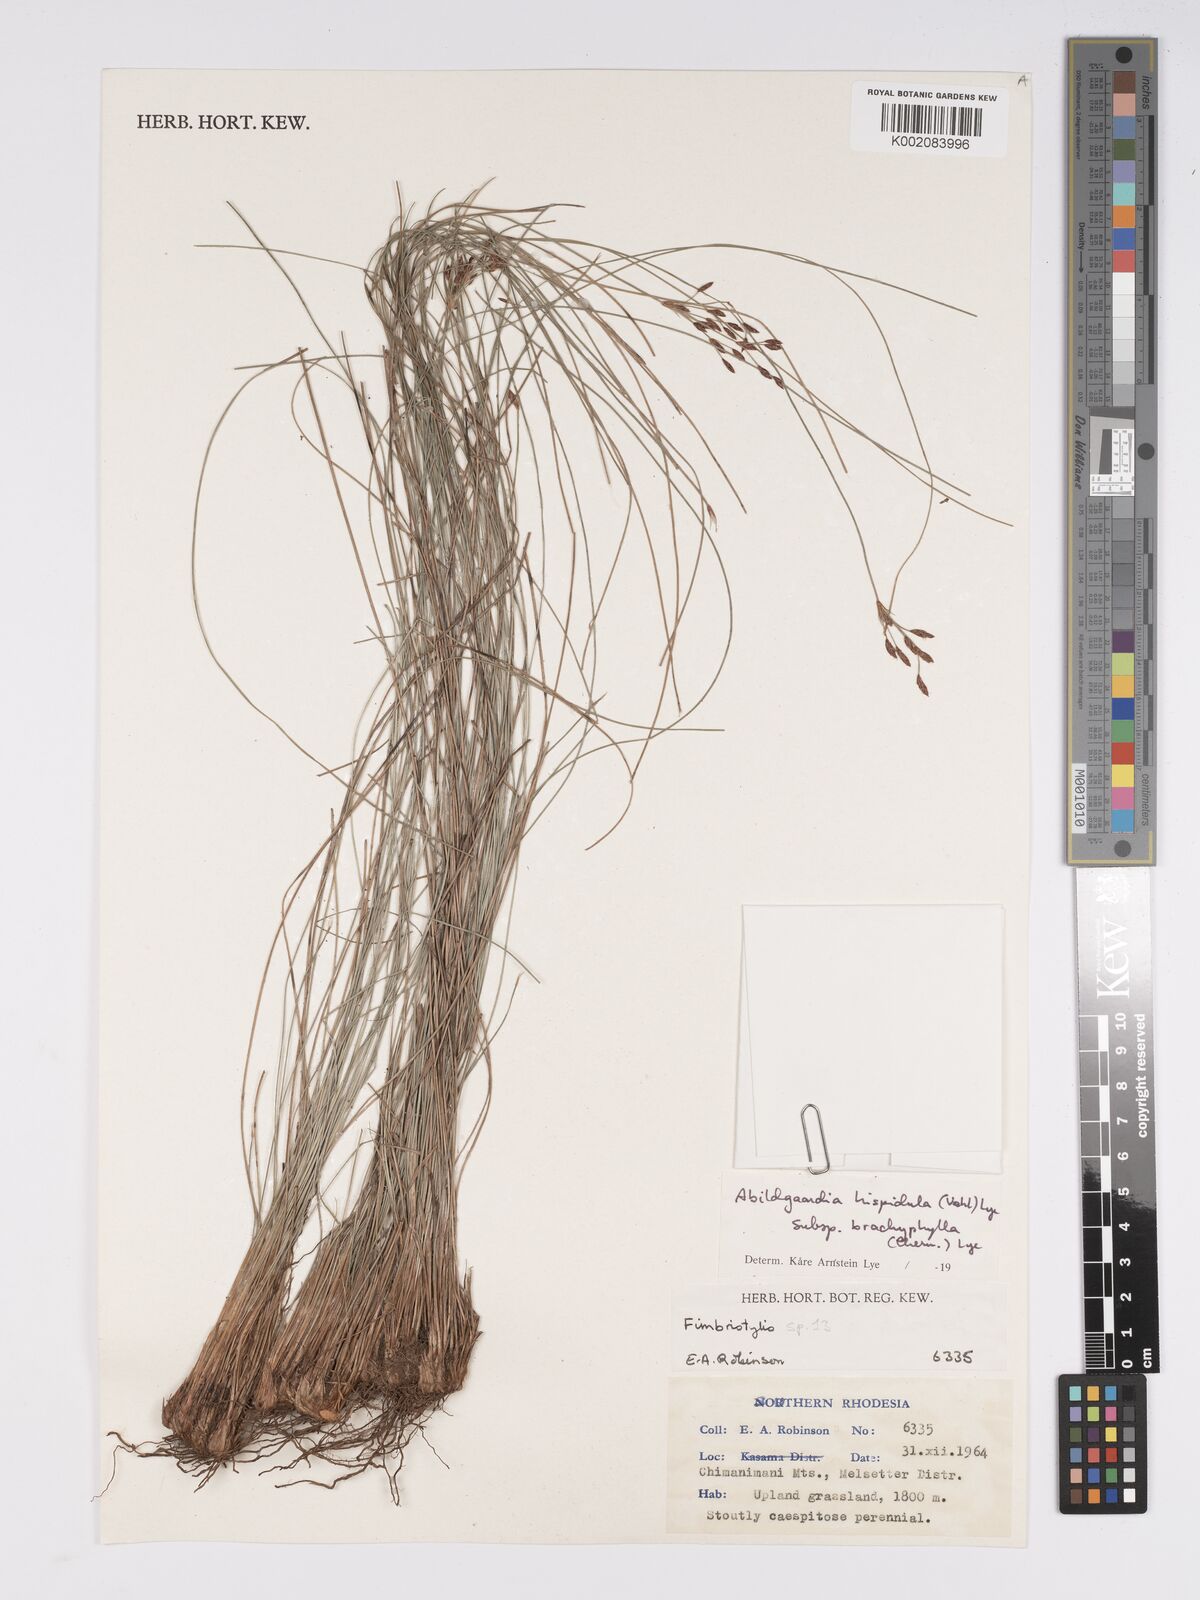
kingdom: Plantae
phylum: Tracheophyta
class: Liliopsida
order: Poales
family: Cyperaceae
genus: Bulbostylis
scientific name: Bulbostylis hispidula
